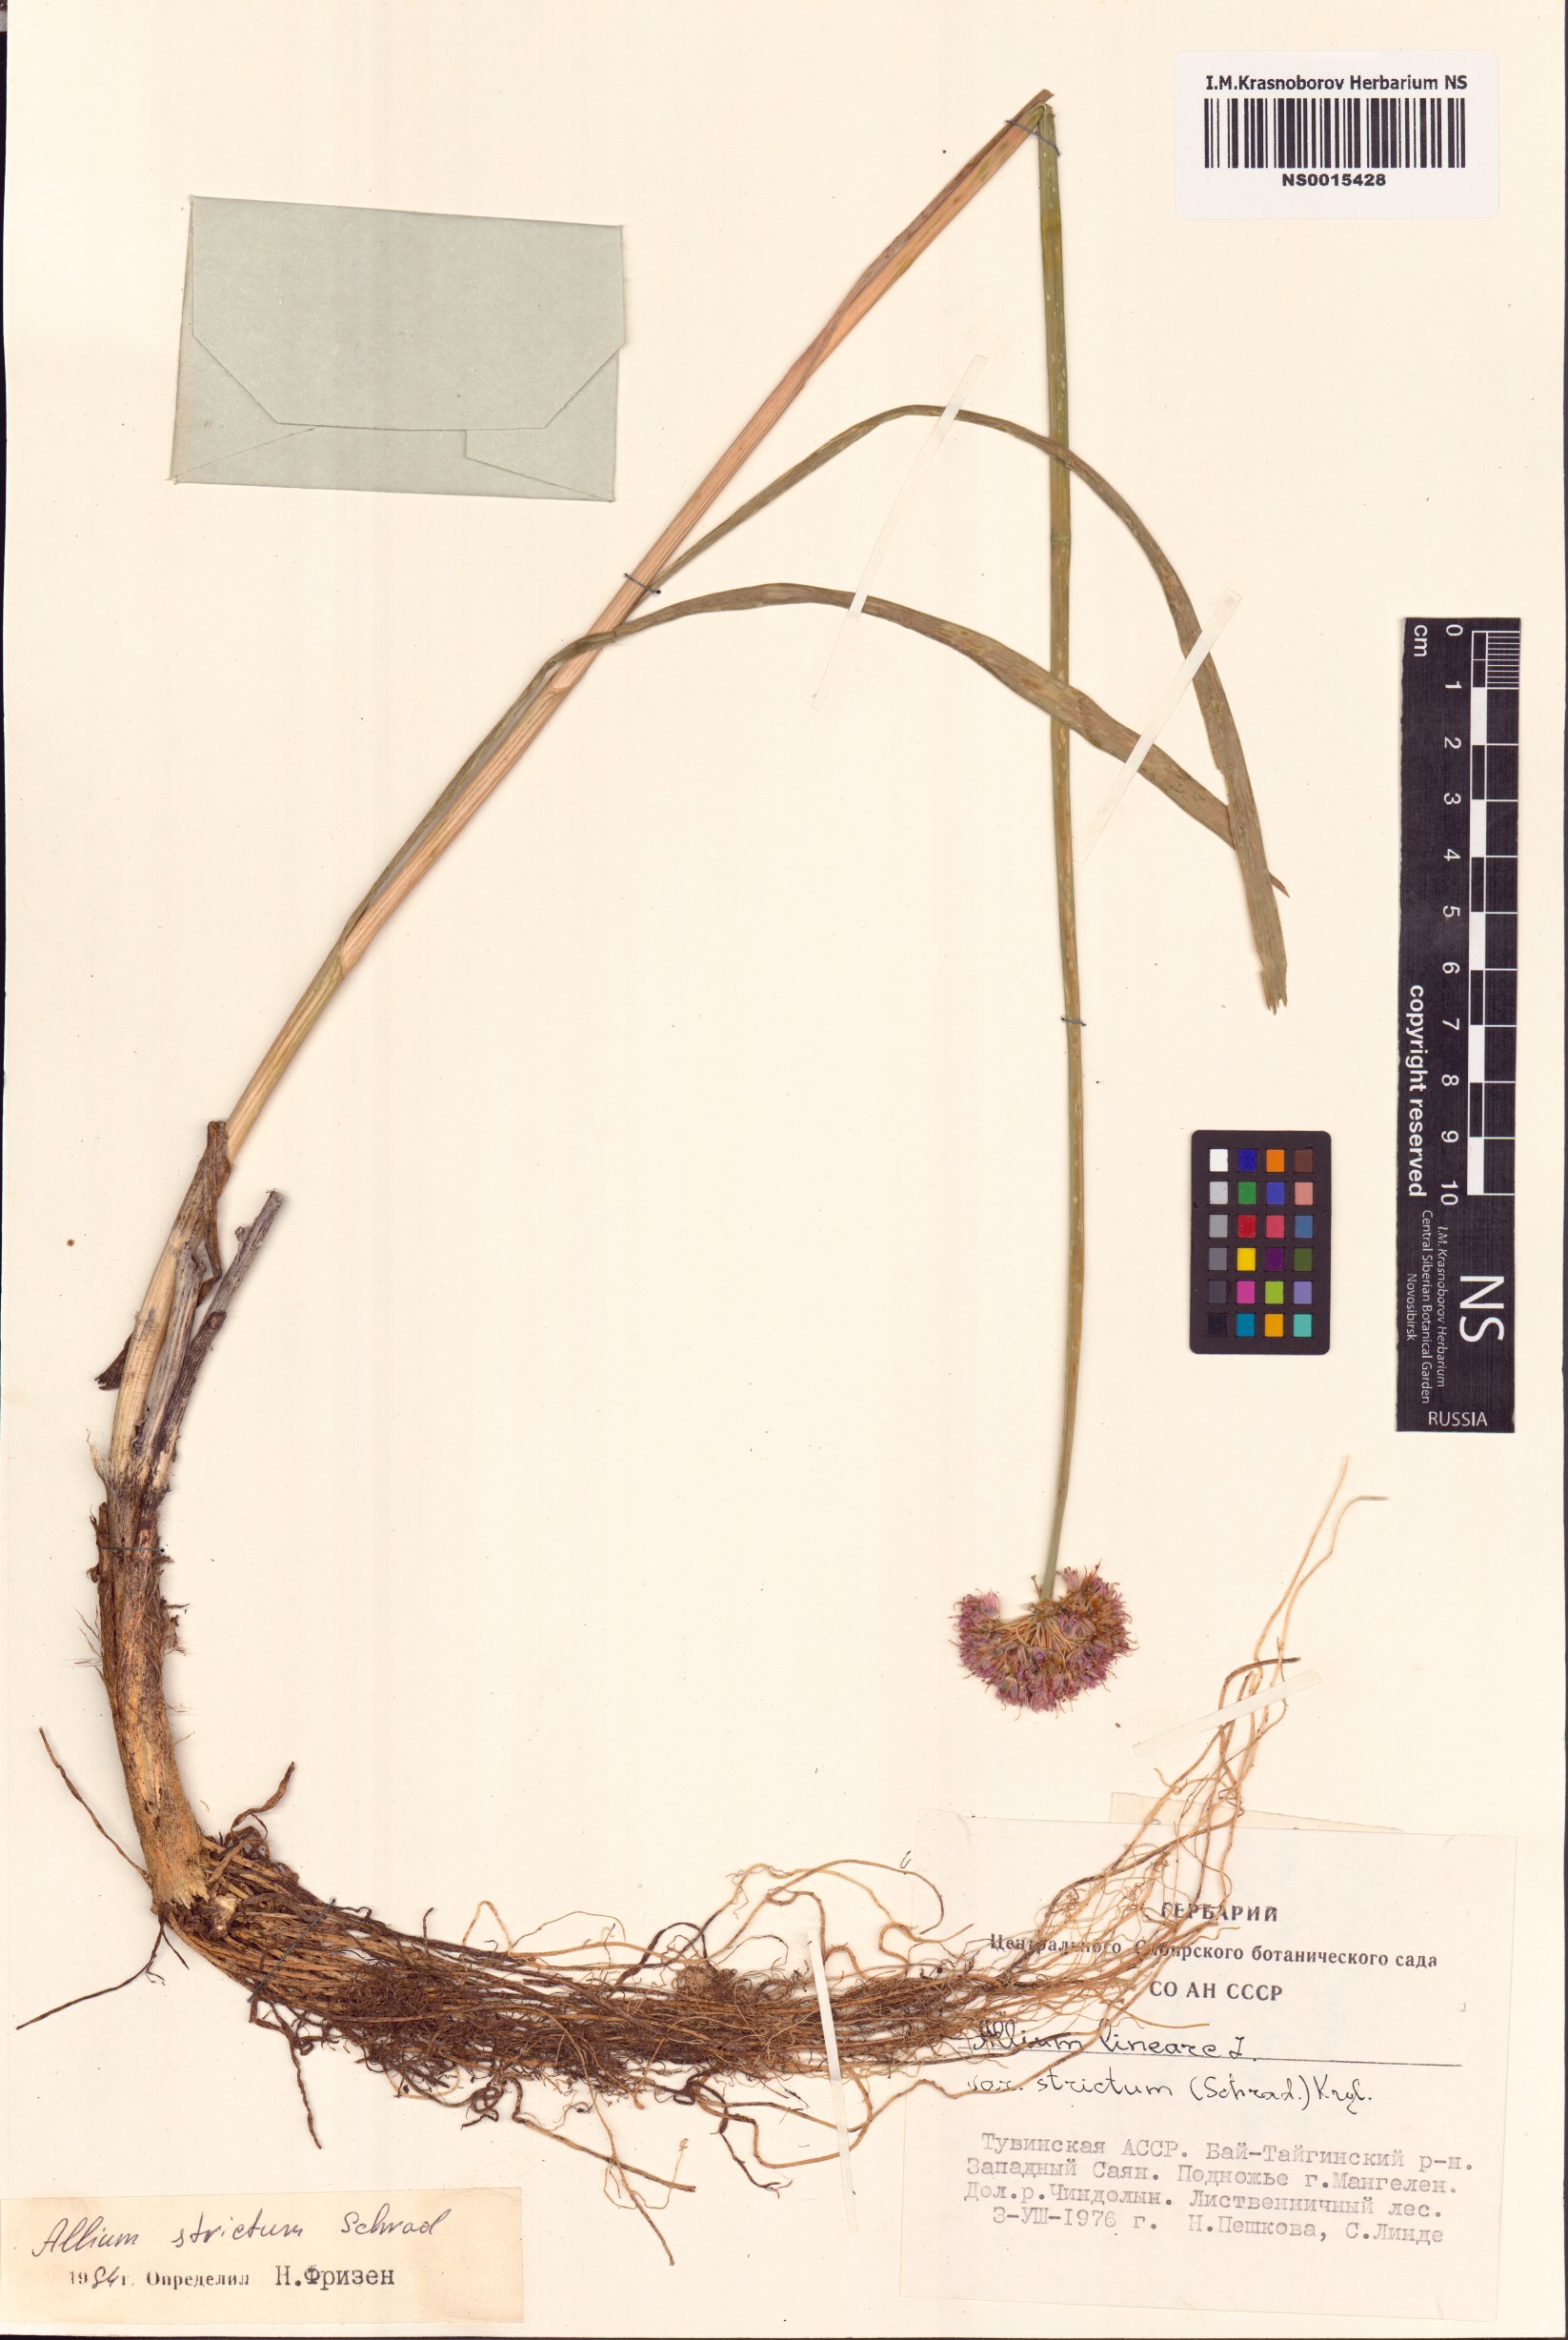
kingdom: Plantae
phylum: Tracheophyta
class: Liliopsida
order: Asparagales
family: Amaryllidaceae
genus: Allium
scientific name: Allium strictum
